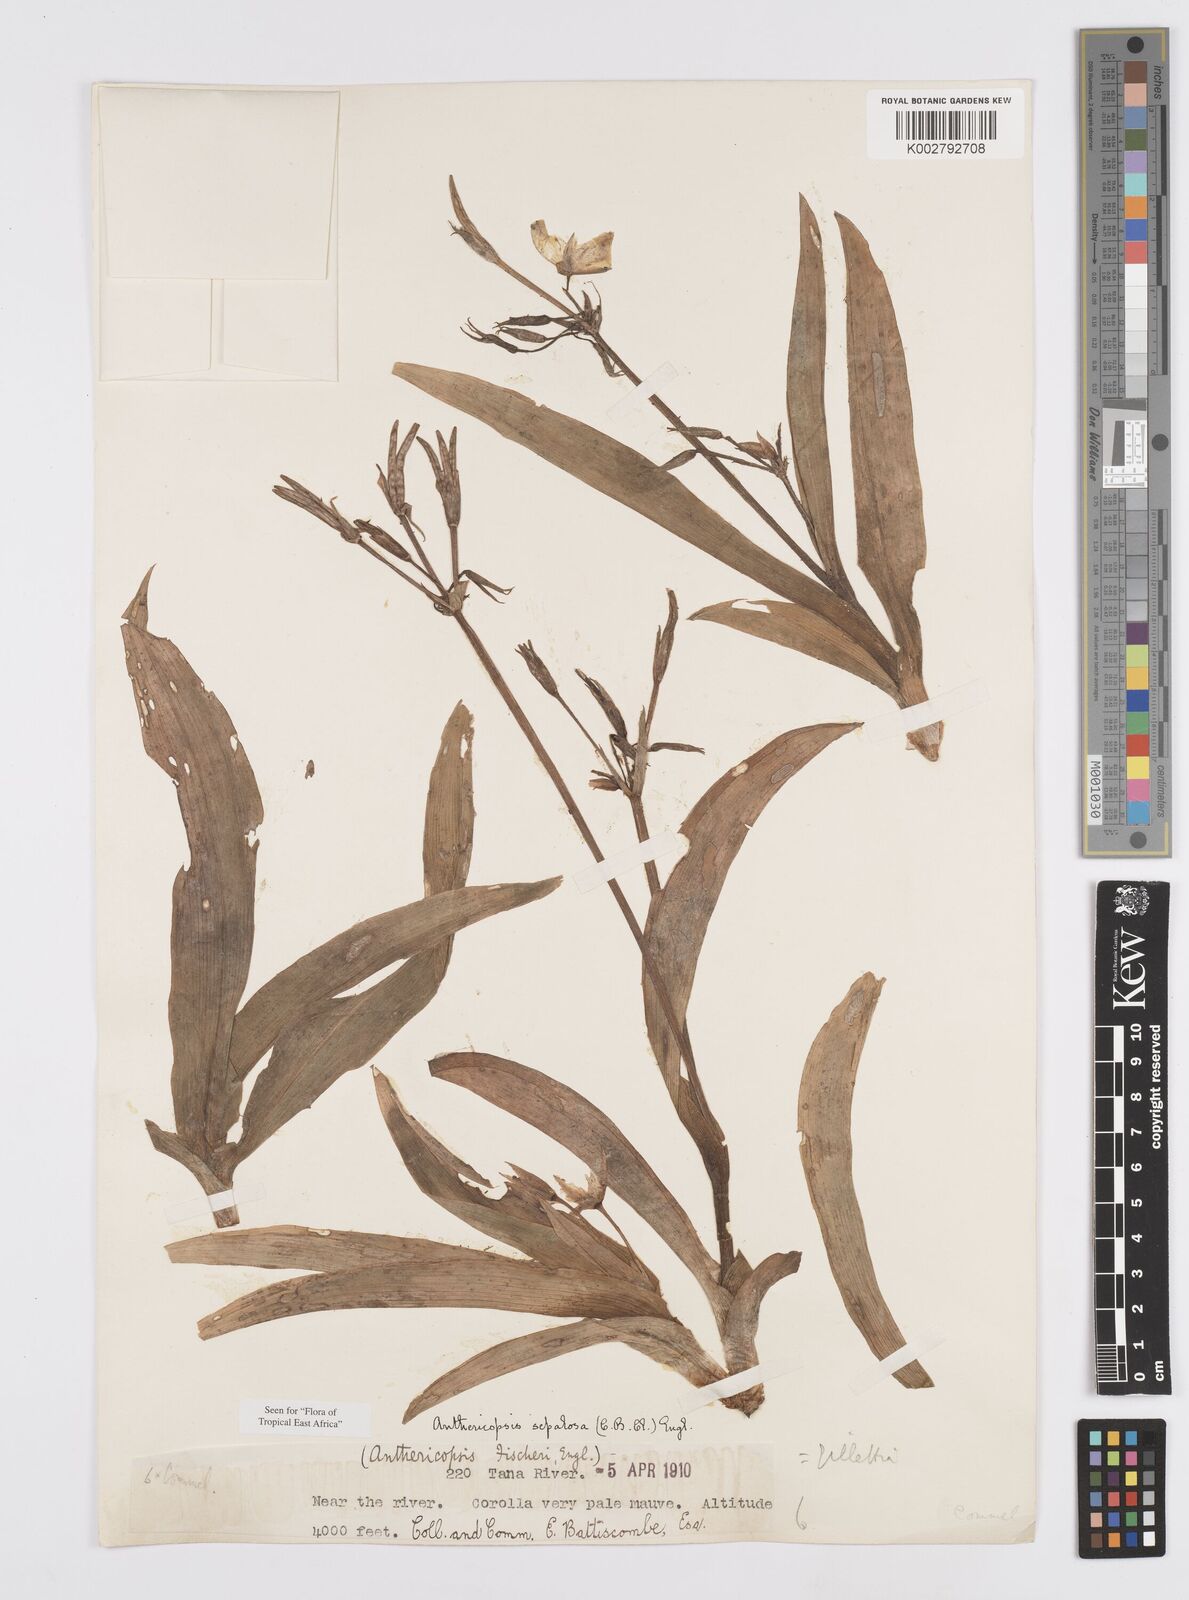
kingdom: Plantae
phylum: Tracheophyta
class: Liliopsida
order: Commelinales
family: Commelinaceae
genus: Anthericopsis
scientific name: Anthericopsis sepalosa
